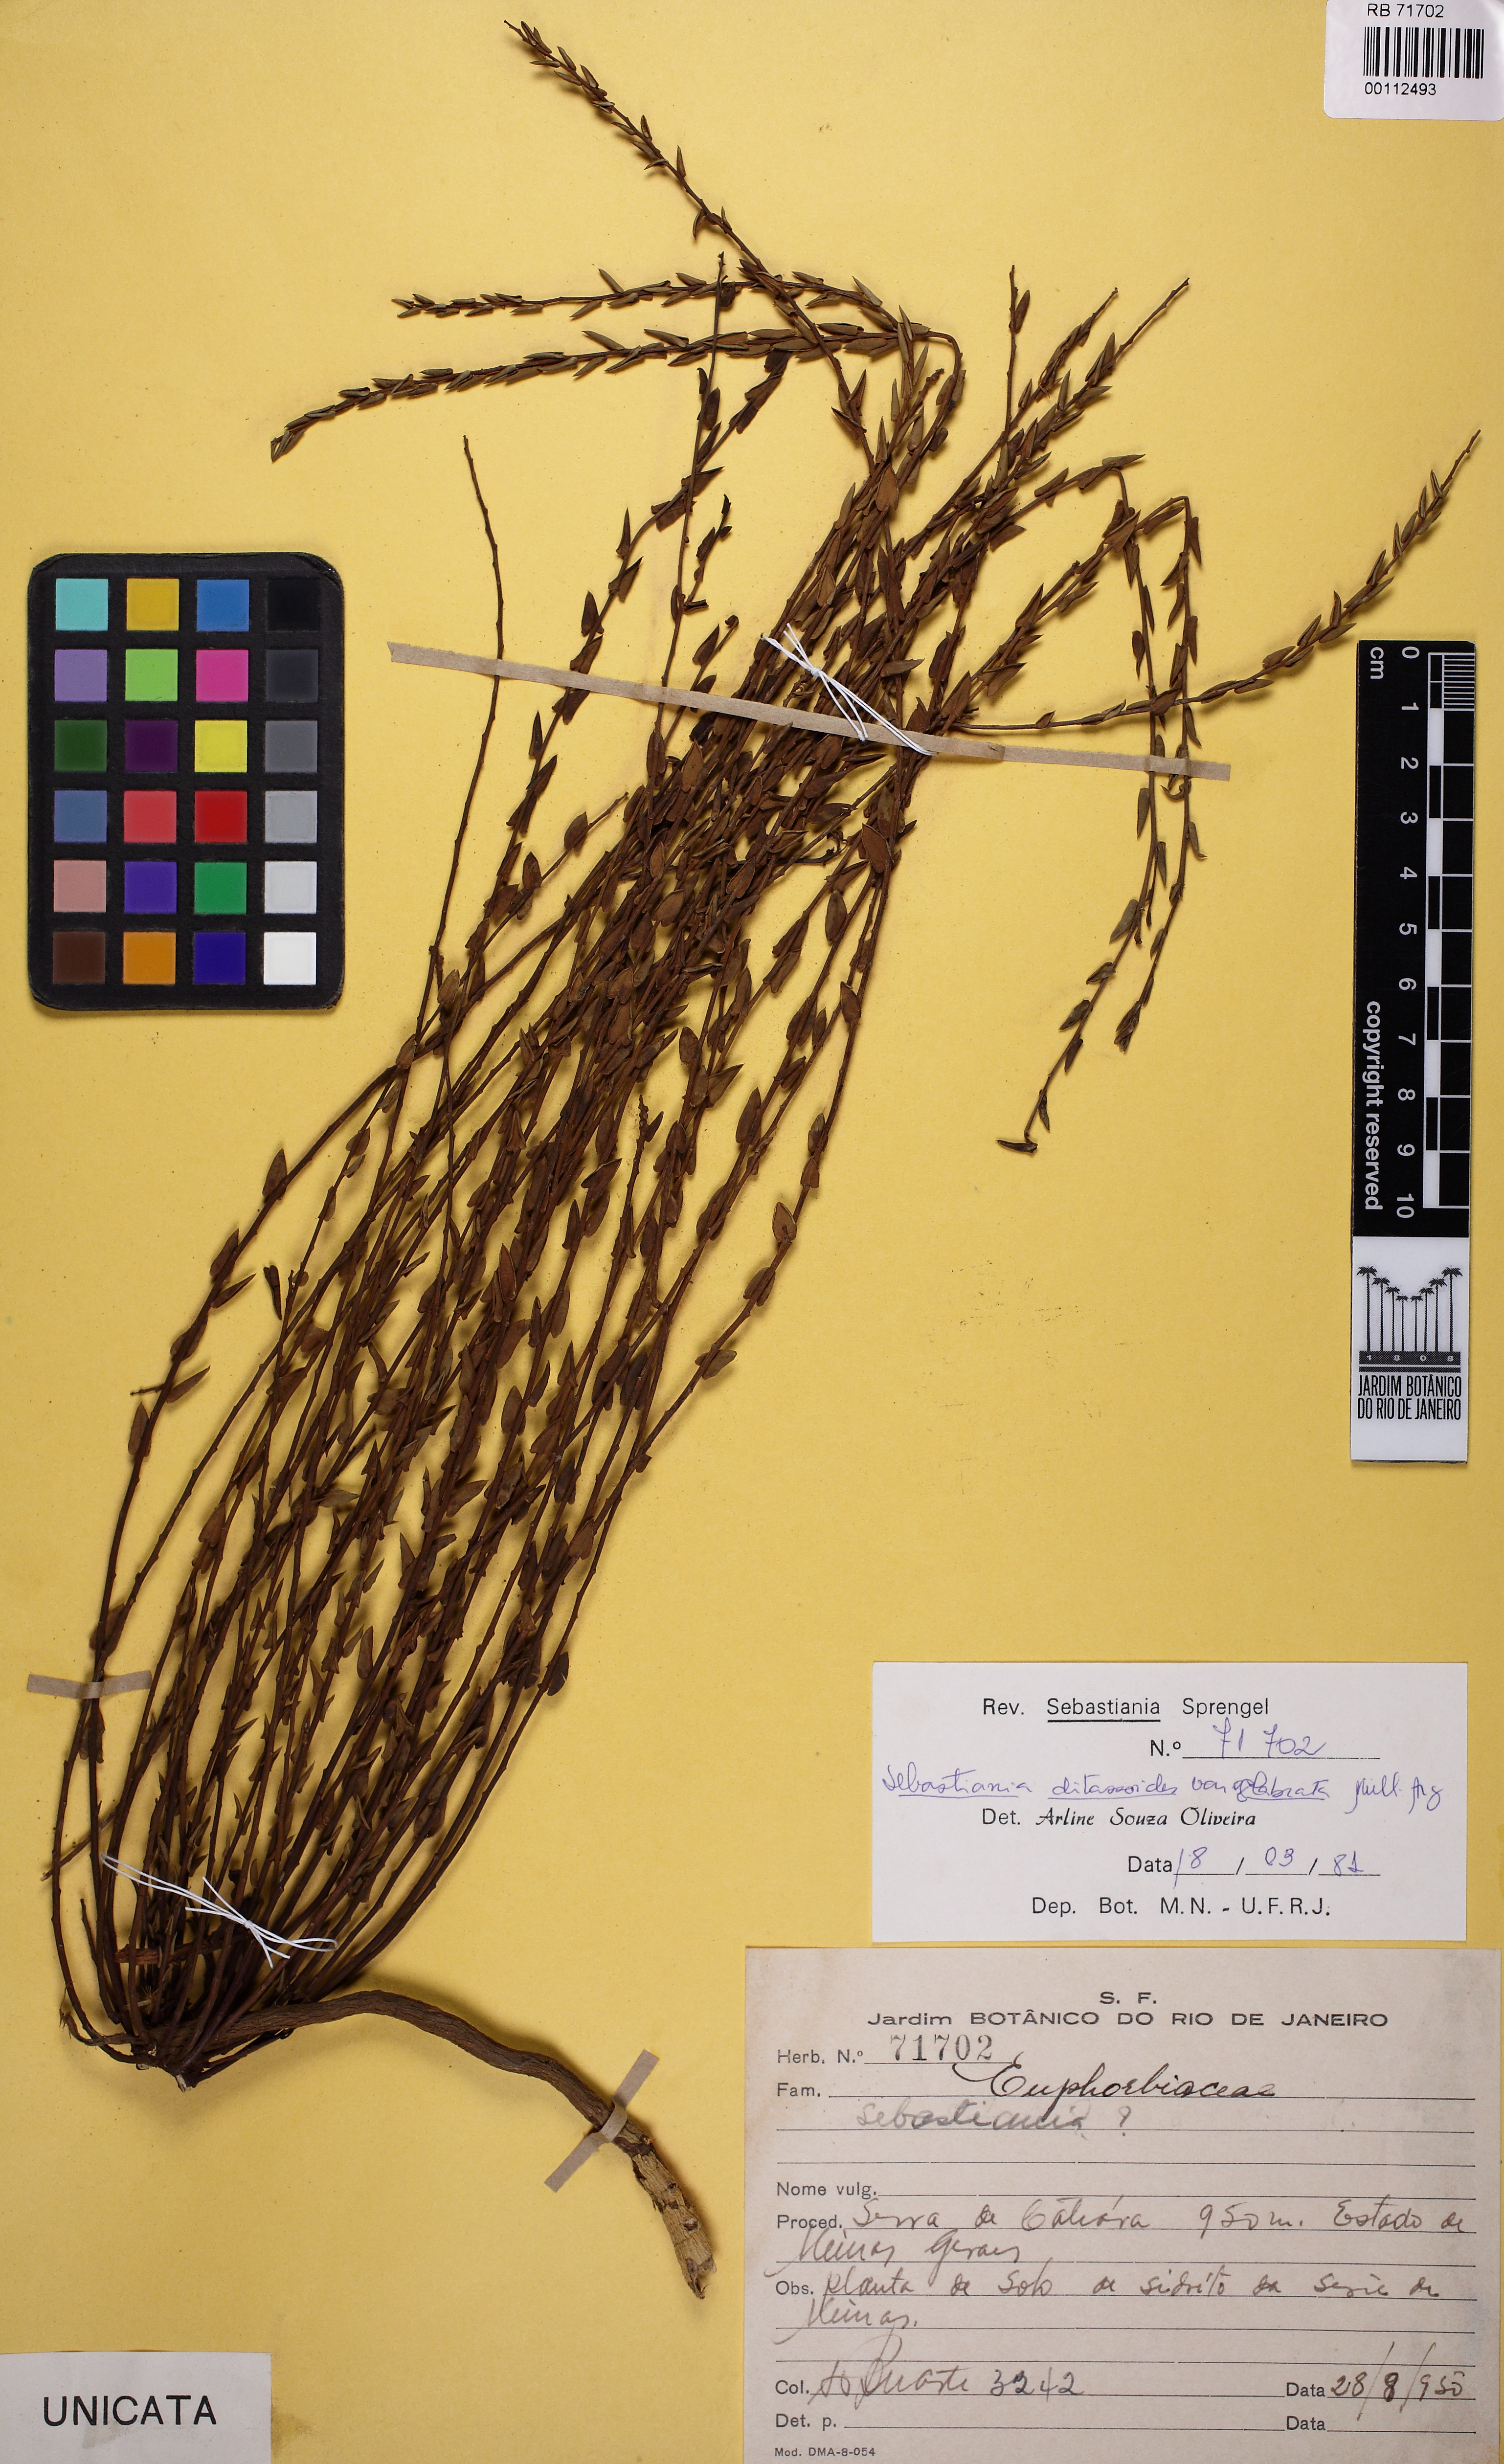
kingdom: Plantae
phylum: Tracheophyta
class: Magnoliopsida
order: Malpighiales
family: Euphorbiaceae
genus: Microstachys
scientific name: Microstachys ditassoides
